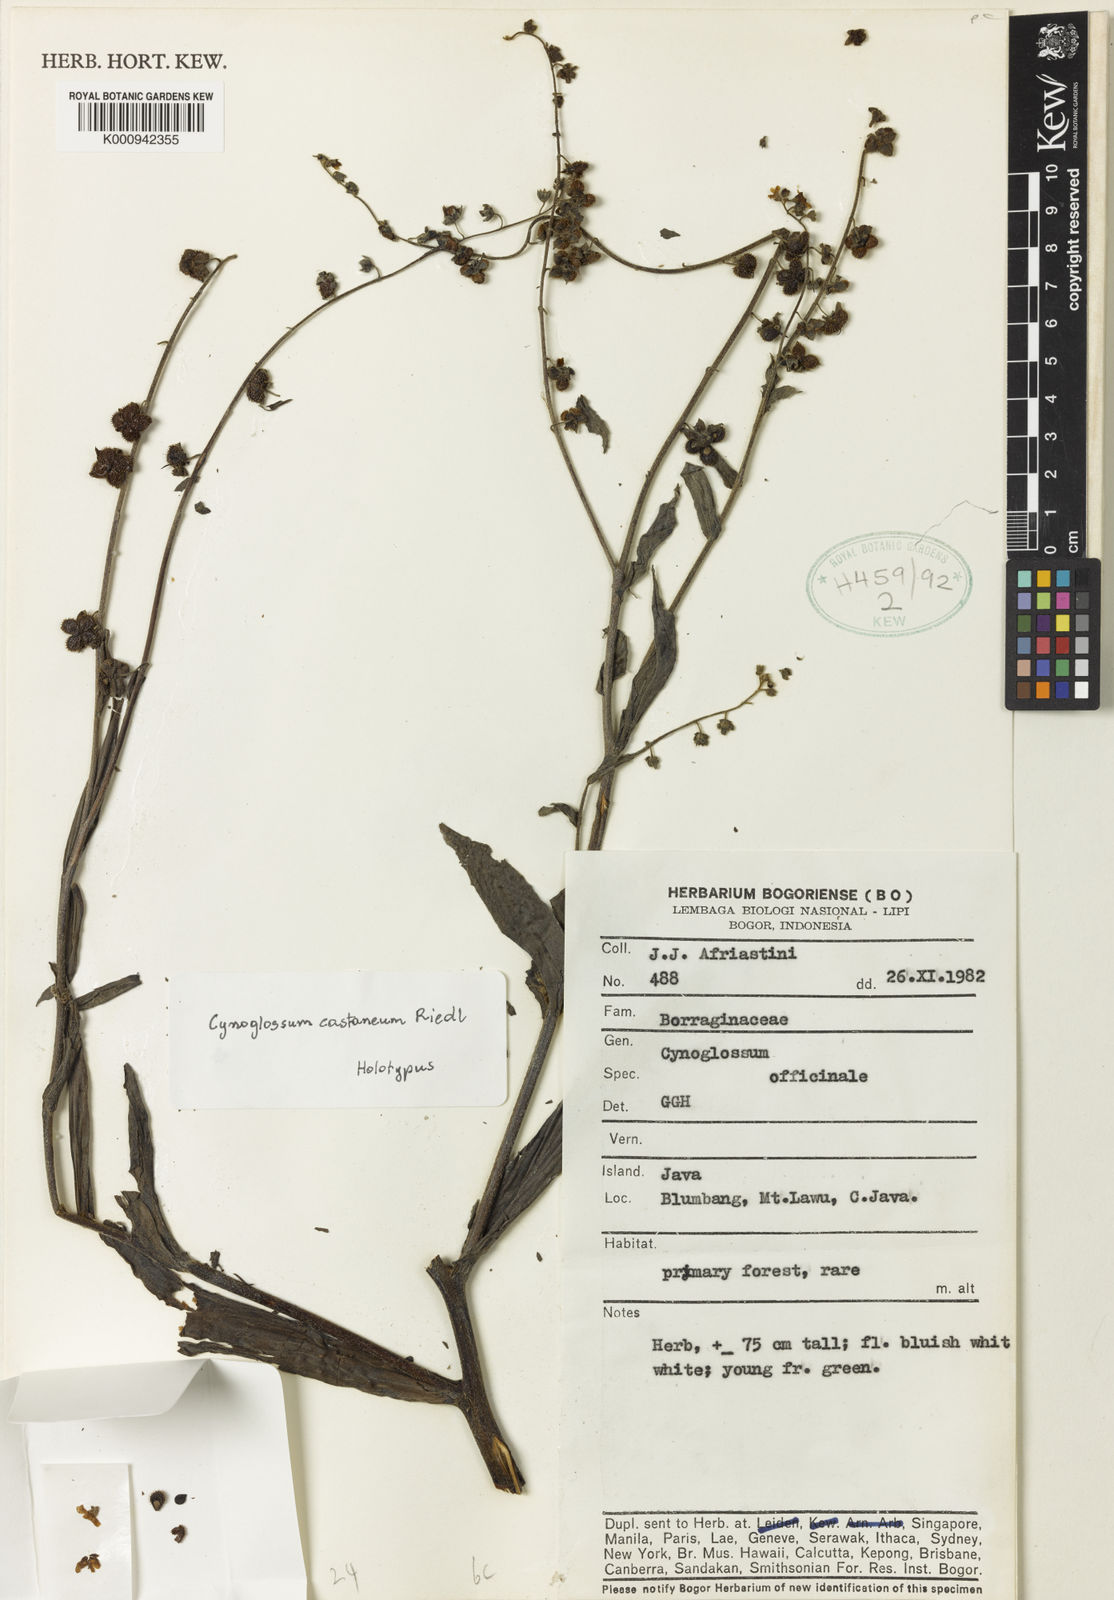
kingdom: Plantae
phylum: Tracheophyta
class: Magnoliopsida
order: Boraginales
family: Boraginaceae
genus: Cynoglossum
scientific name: Cynoglossum castaneum
